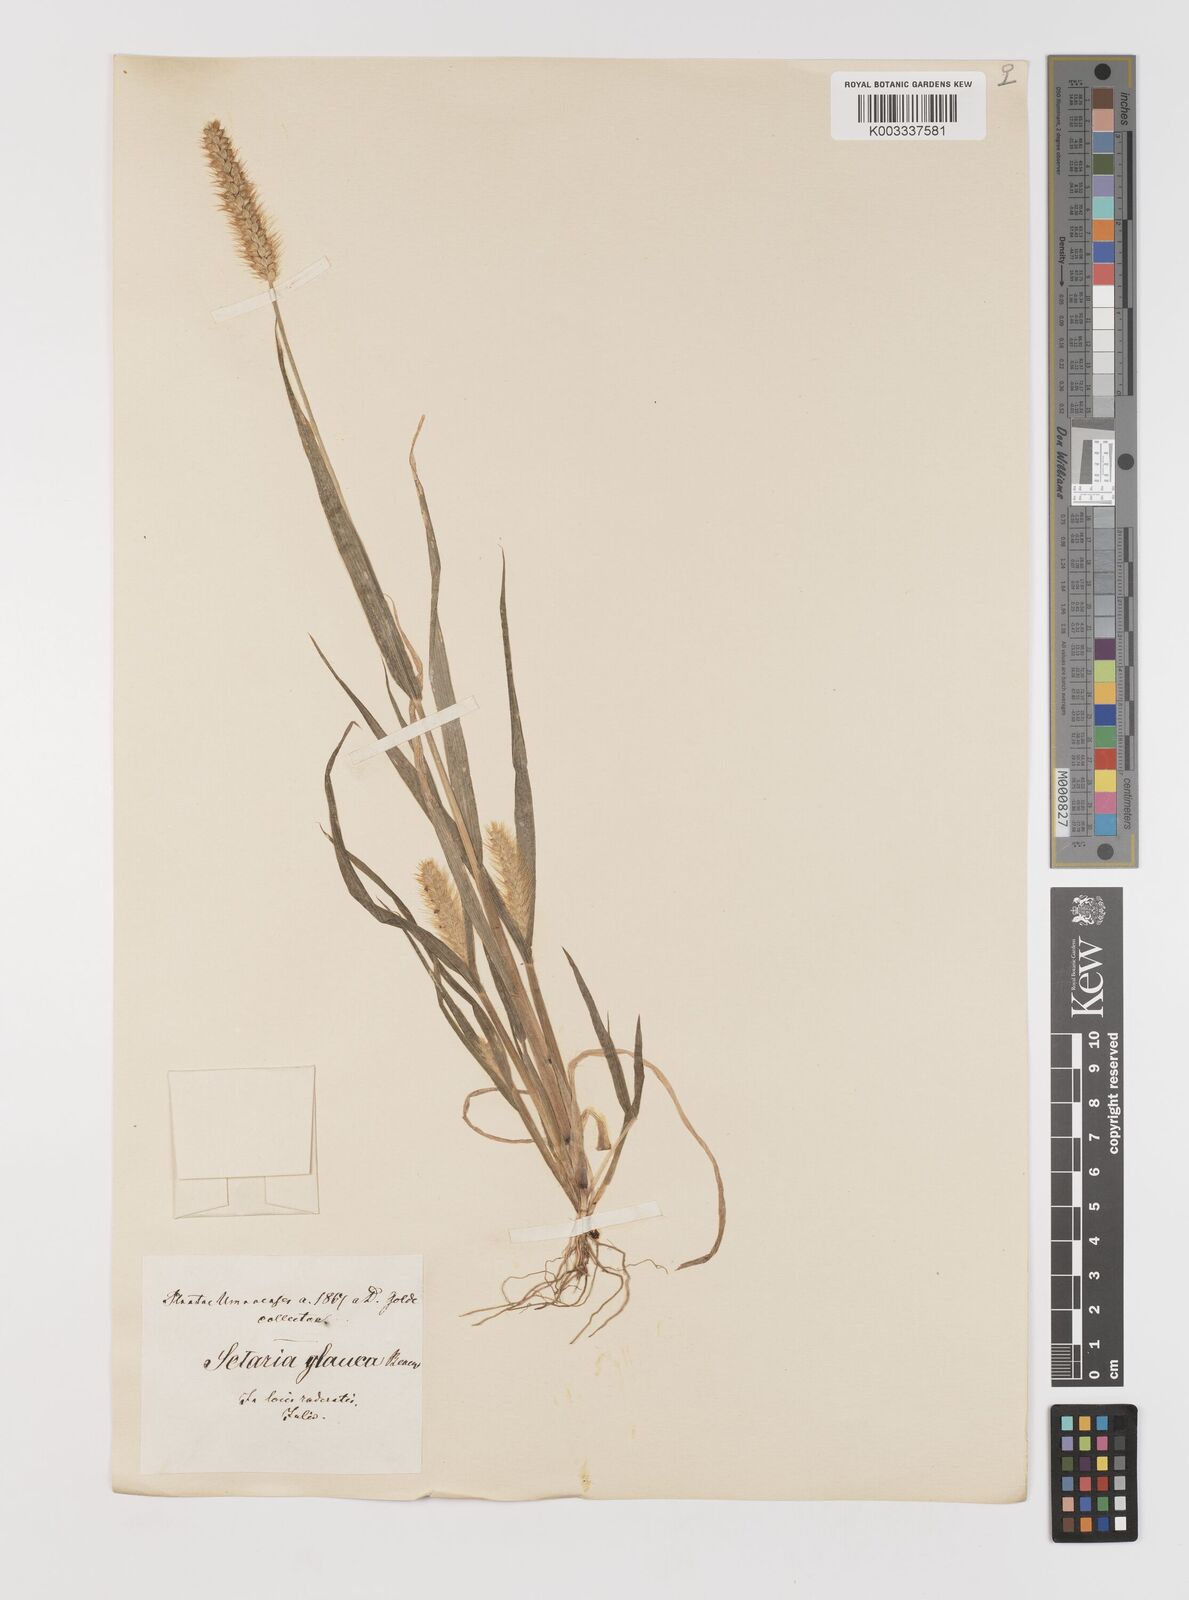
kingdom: Plantae
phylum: Tracheophyta
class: Liliopsida
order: Poales
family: Poaceae
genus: Setaria
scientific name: Setaria pumila
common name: Yellow bristle-grass
